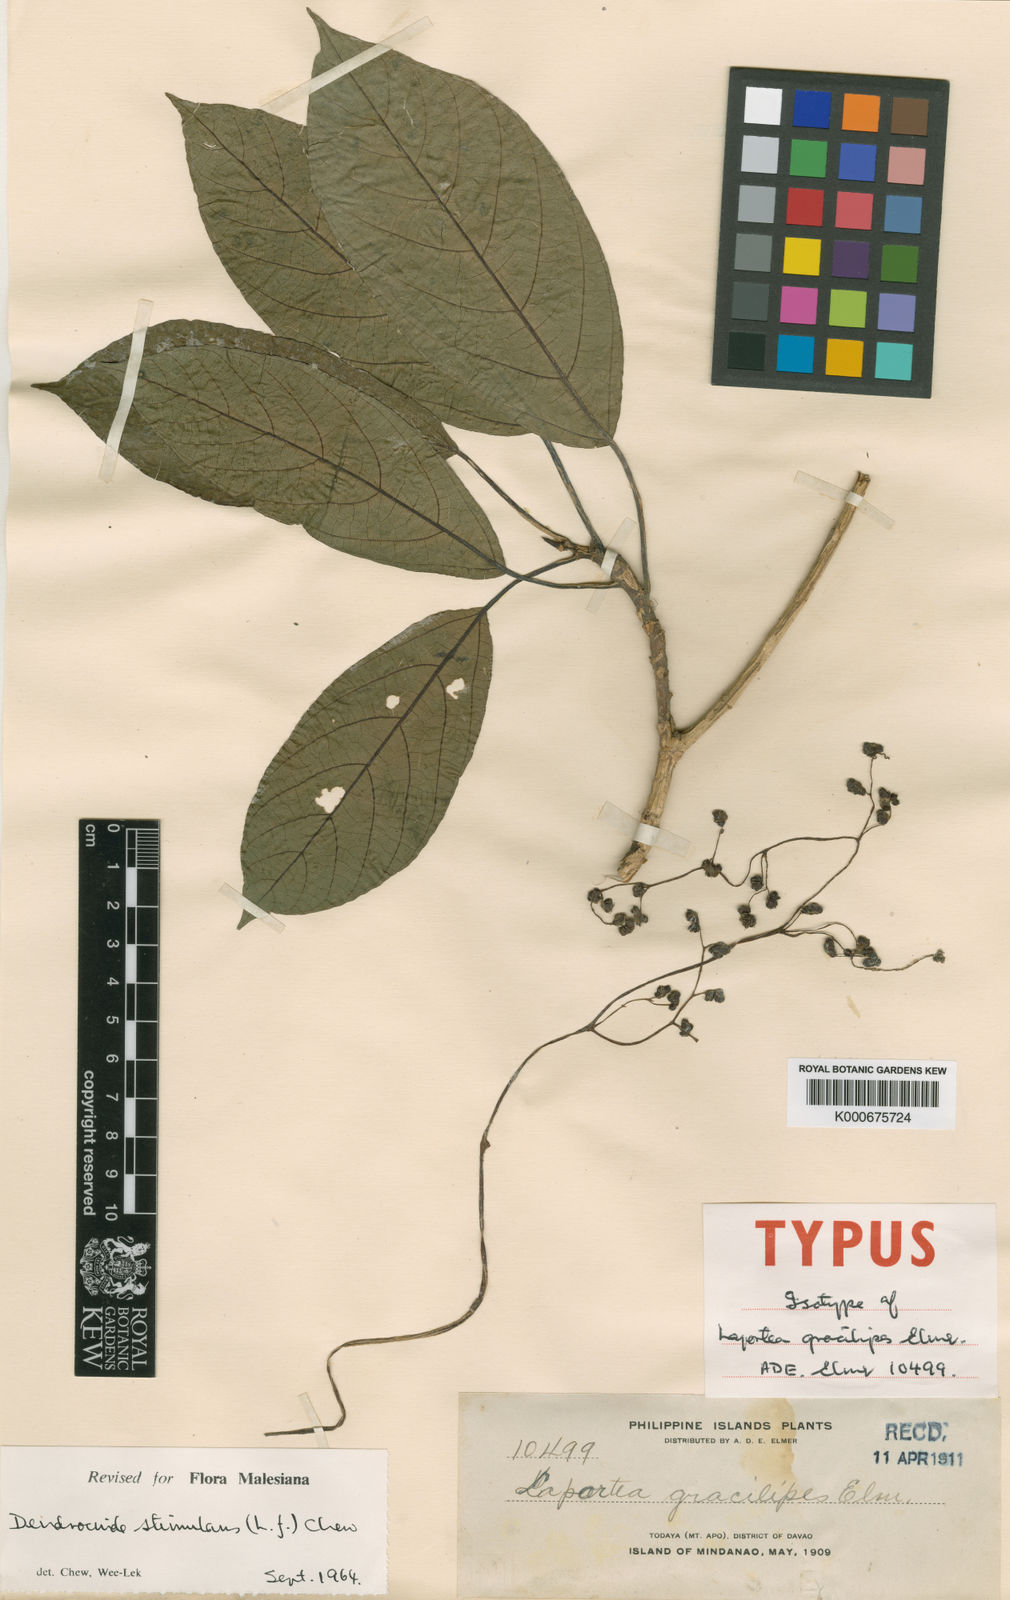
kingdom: Plantae
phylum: Tracheophyta
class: Magnoliopsida
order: Rosales
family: Urticaceae
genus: Dendrocnide
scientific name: Dendrocnide stimulans
